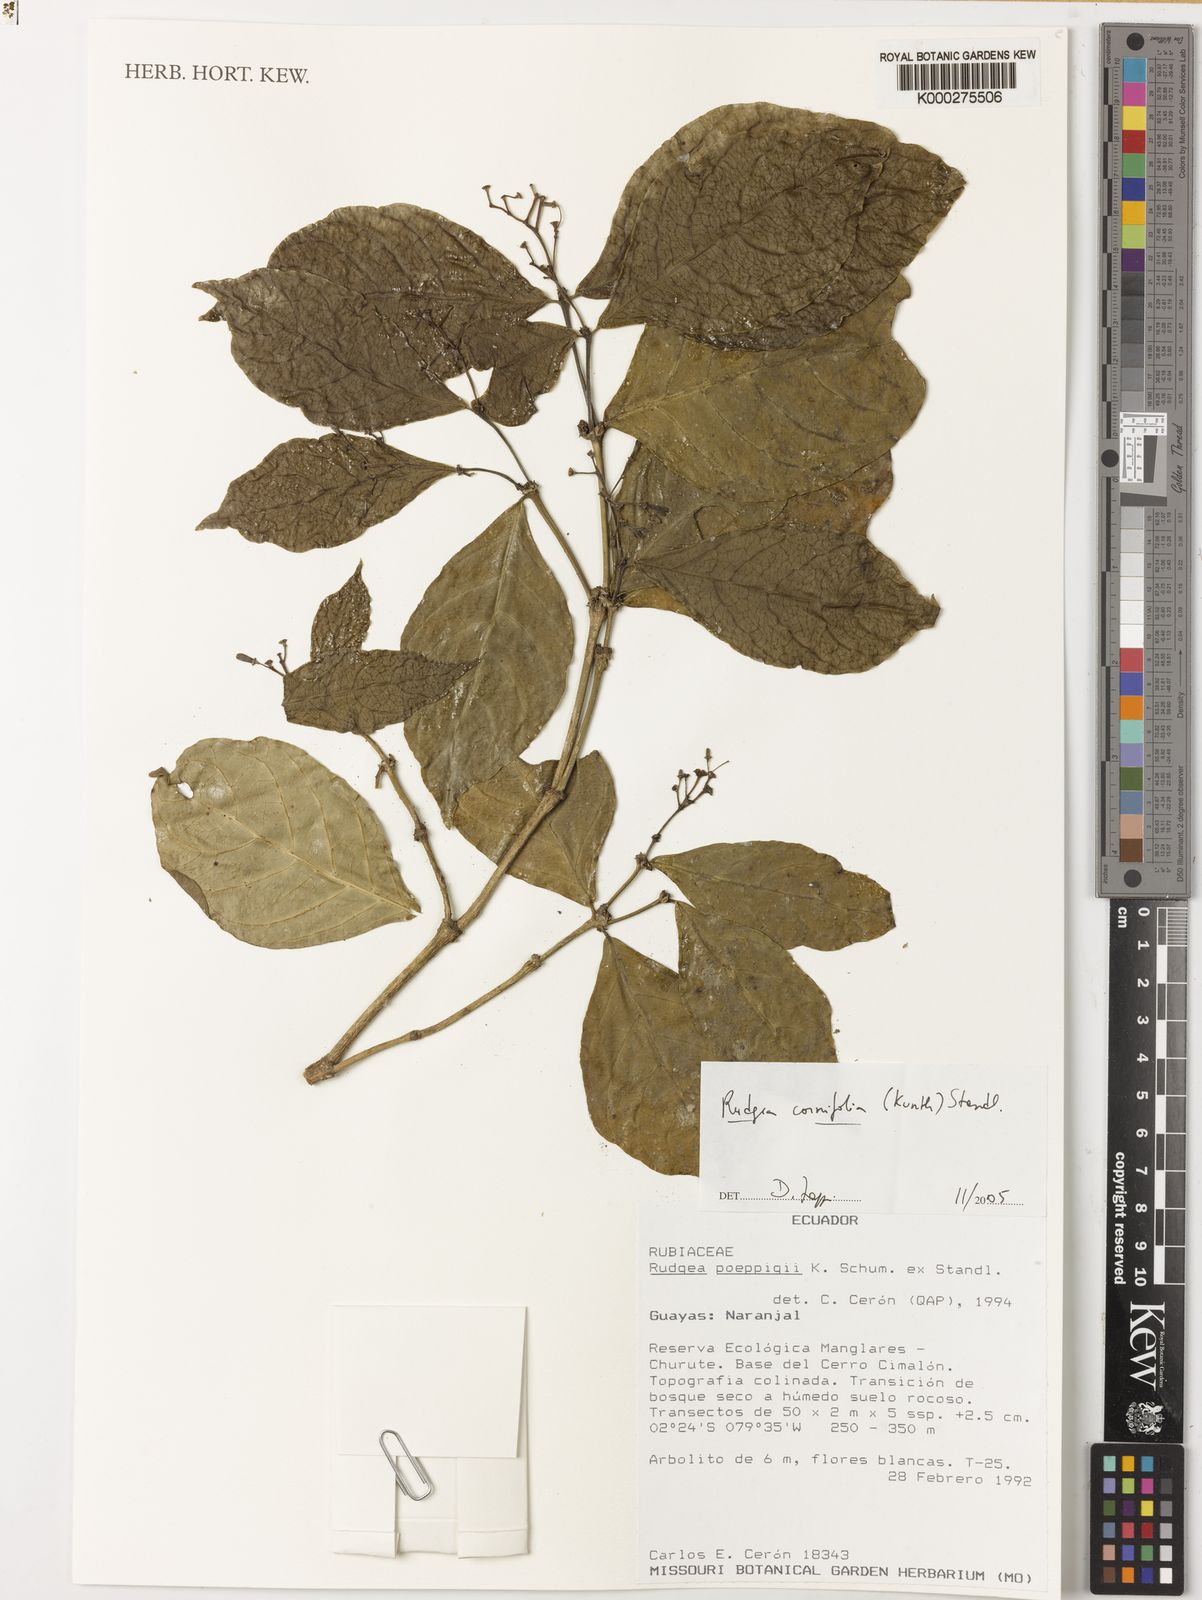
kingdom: Plantae
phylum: Tracheophyta
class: Magnoliopsida
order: Gentianales
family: Rubiaceae
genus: Rudgea
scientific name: Rudgea cornifolia
